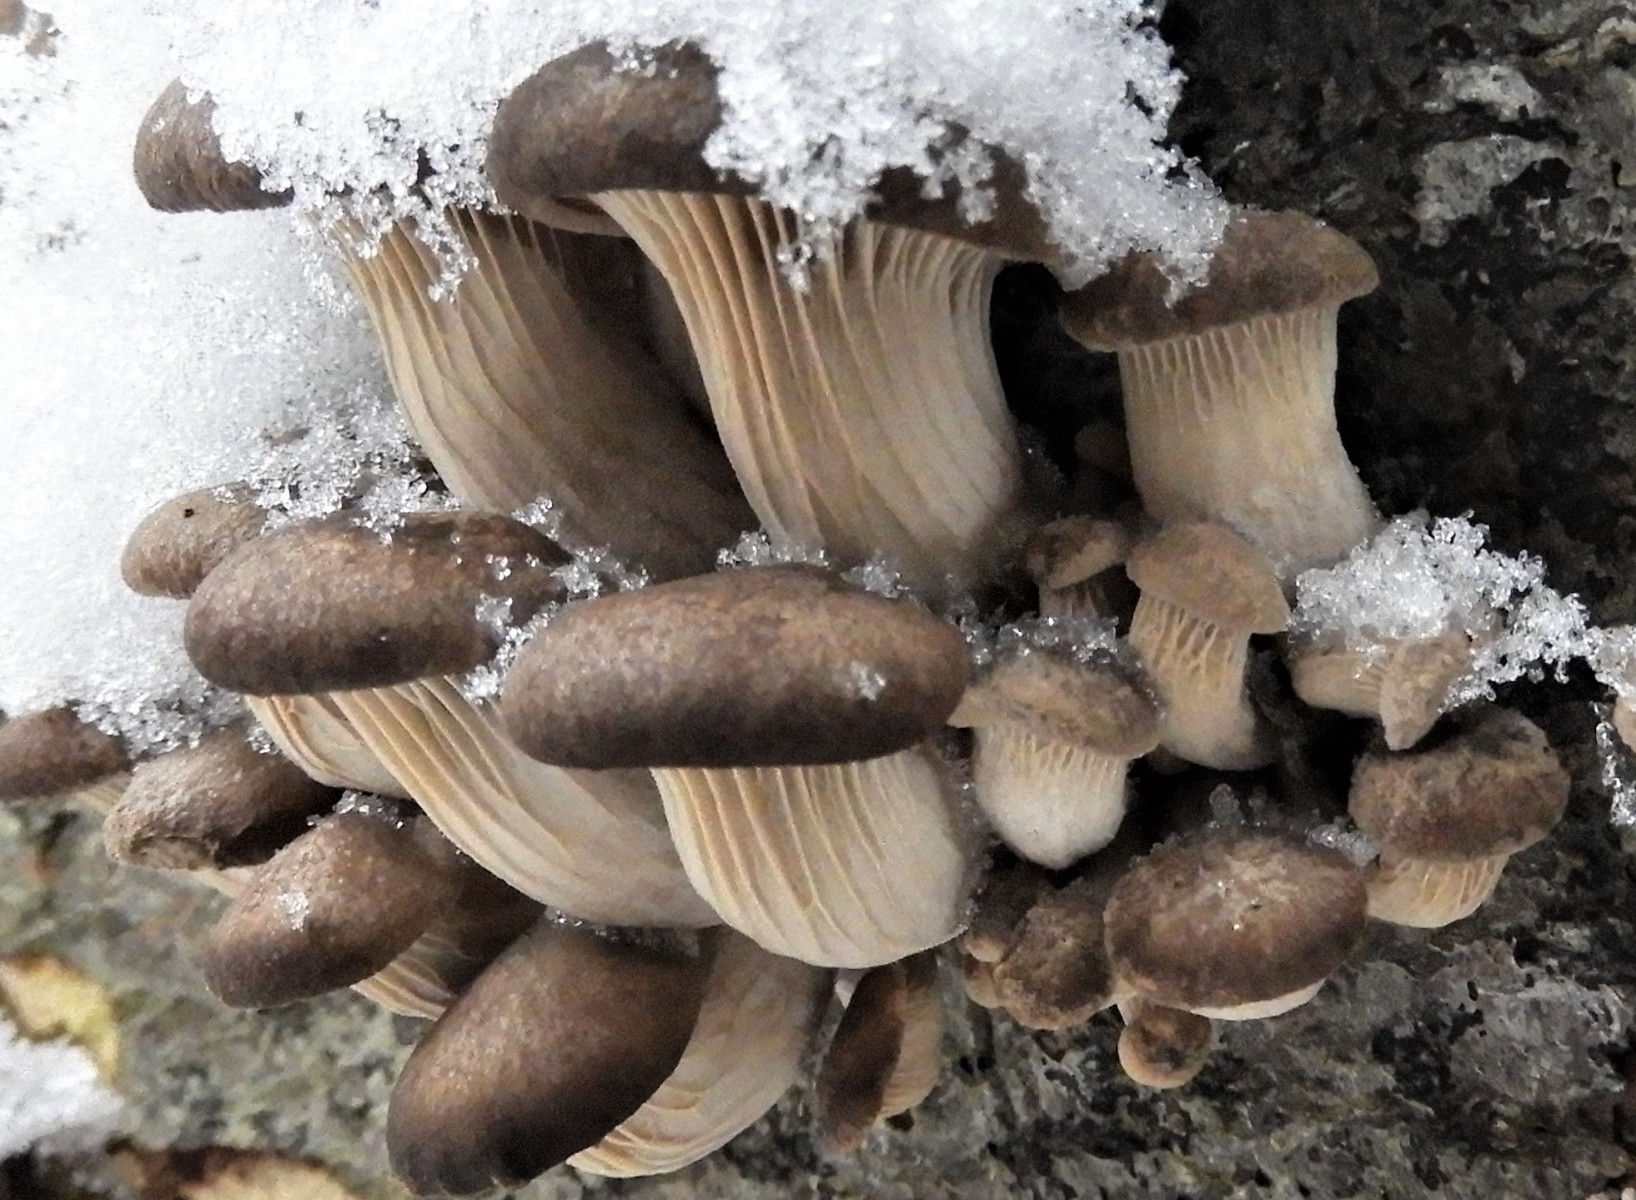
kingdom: Fungi
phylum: Basidiomycota
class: Agaricomycetes
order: Agaricales
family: Pleurotaceae
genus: Pleurotus
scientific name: Pleurotus ostreatus
